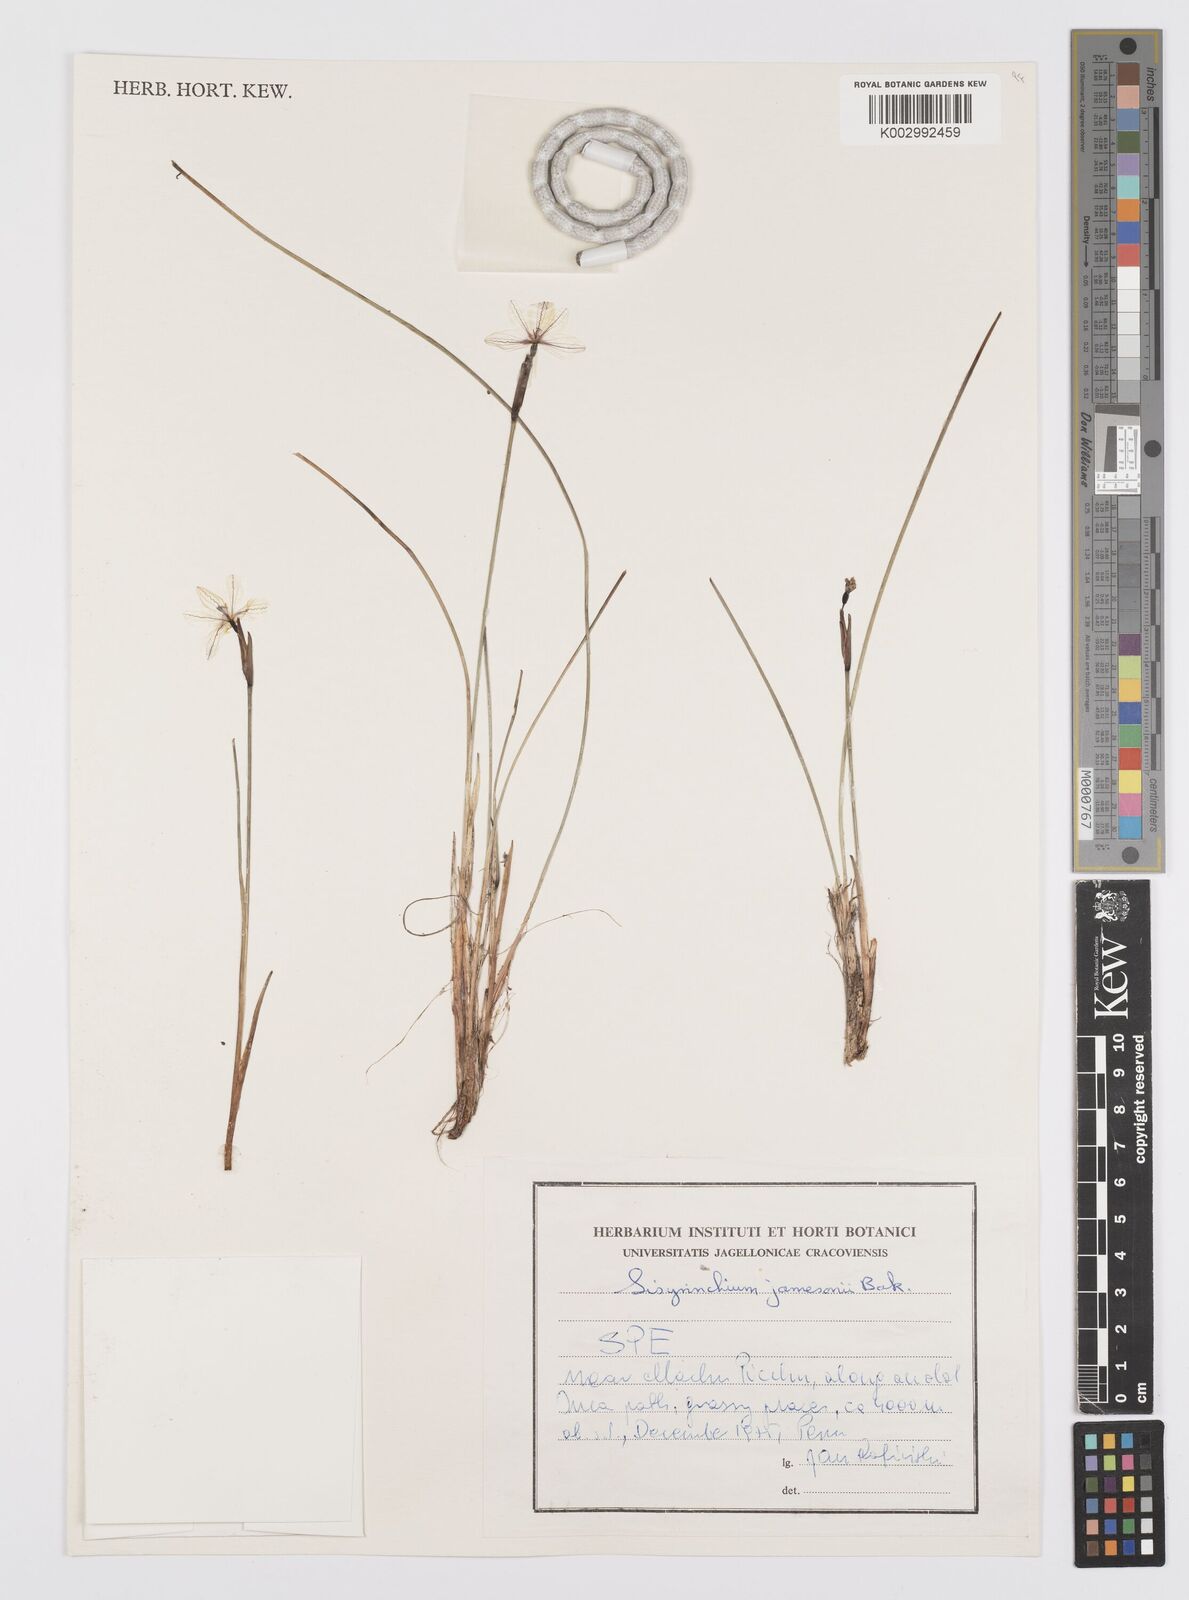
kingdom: Plantae
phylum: Tracheophyta
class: Liliopsida
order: Asparagales
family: Iridaceae
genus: Sisyrinchium
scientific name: Sisyrinchium jamesonii
